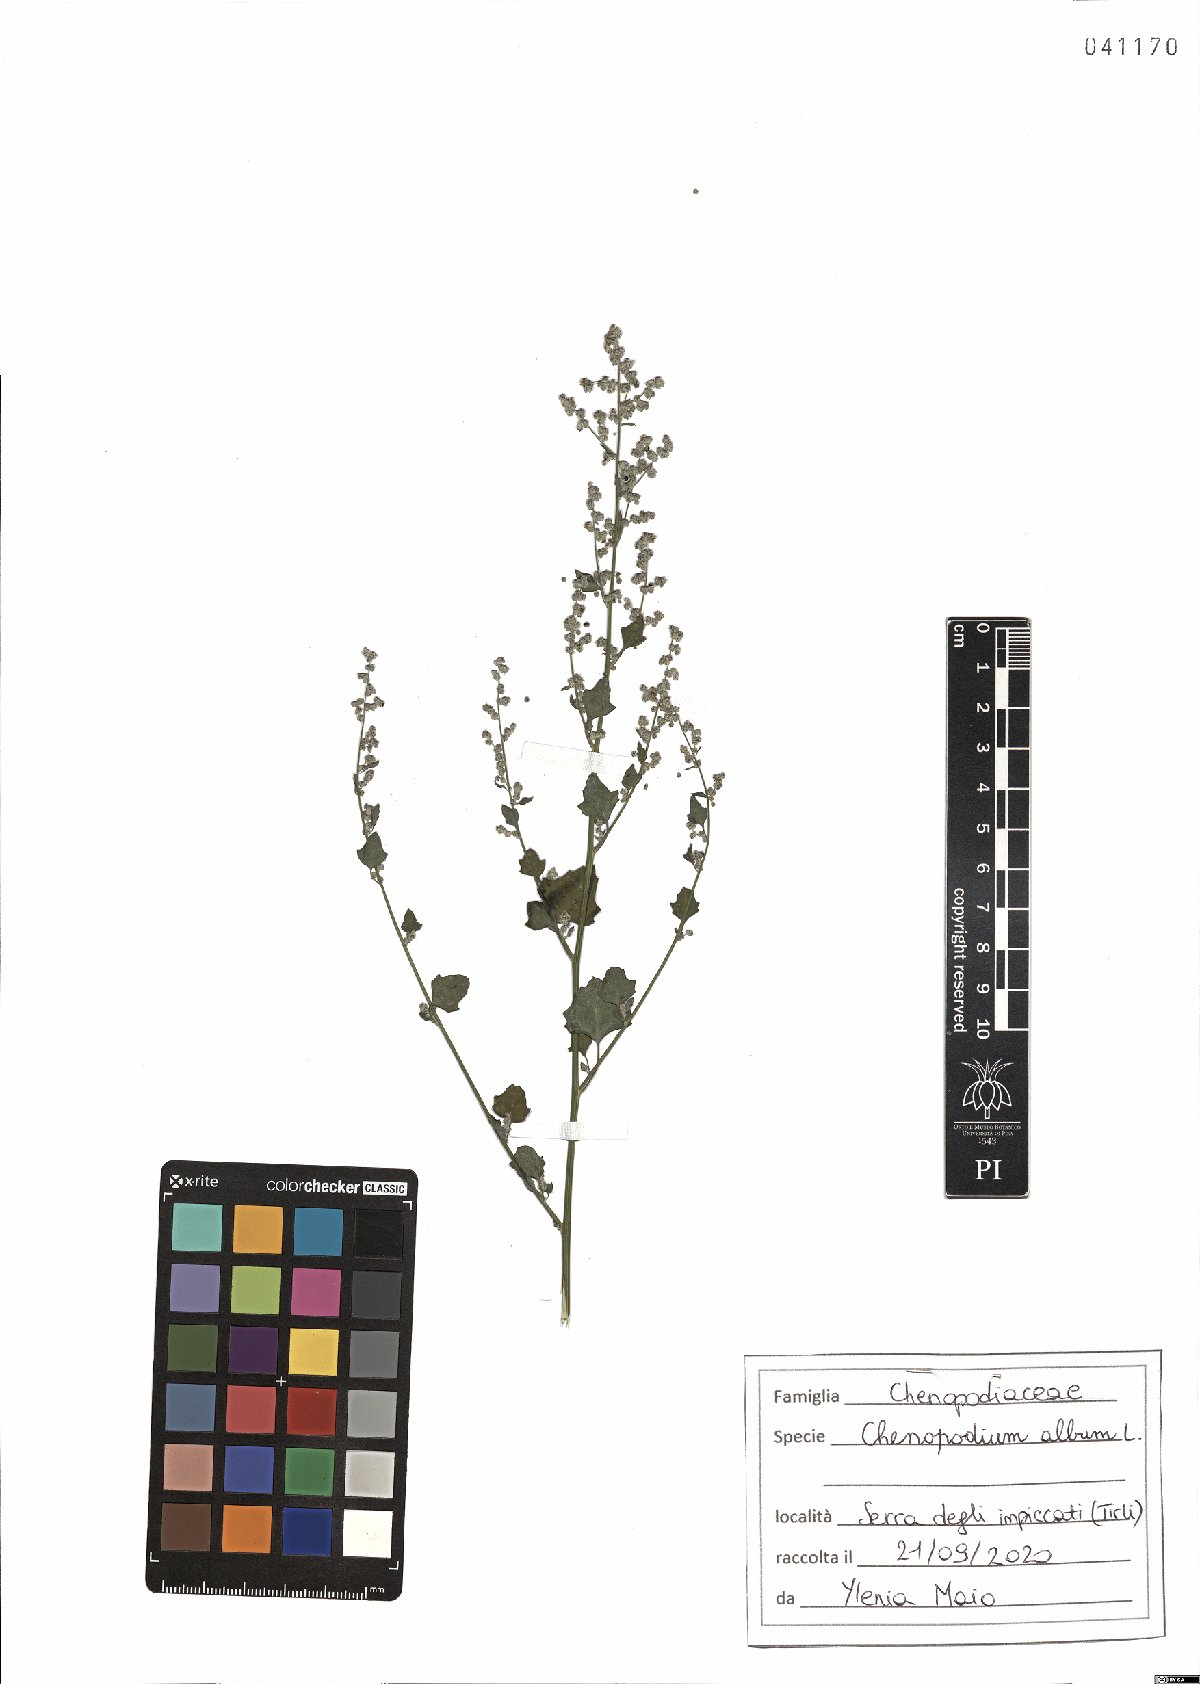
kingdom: Plantae
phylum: Tracheophyta
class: Magnoliopsida
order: Caryophyllales
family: Amaranthaceae
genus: Chenopodium
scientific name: Chenopodium album
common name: Fat-hen
